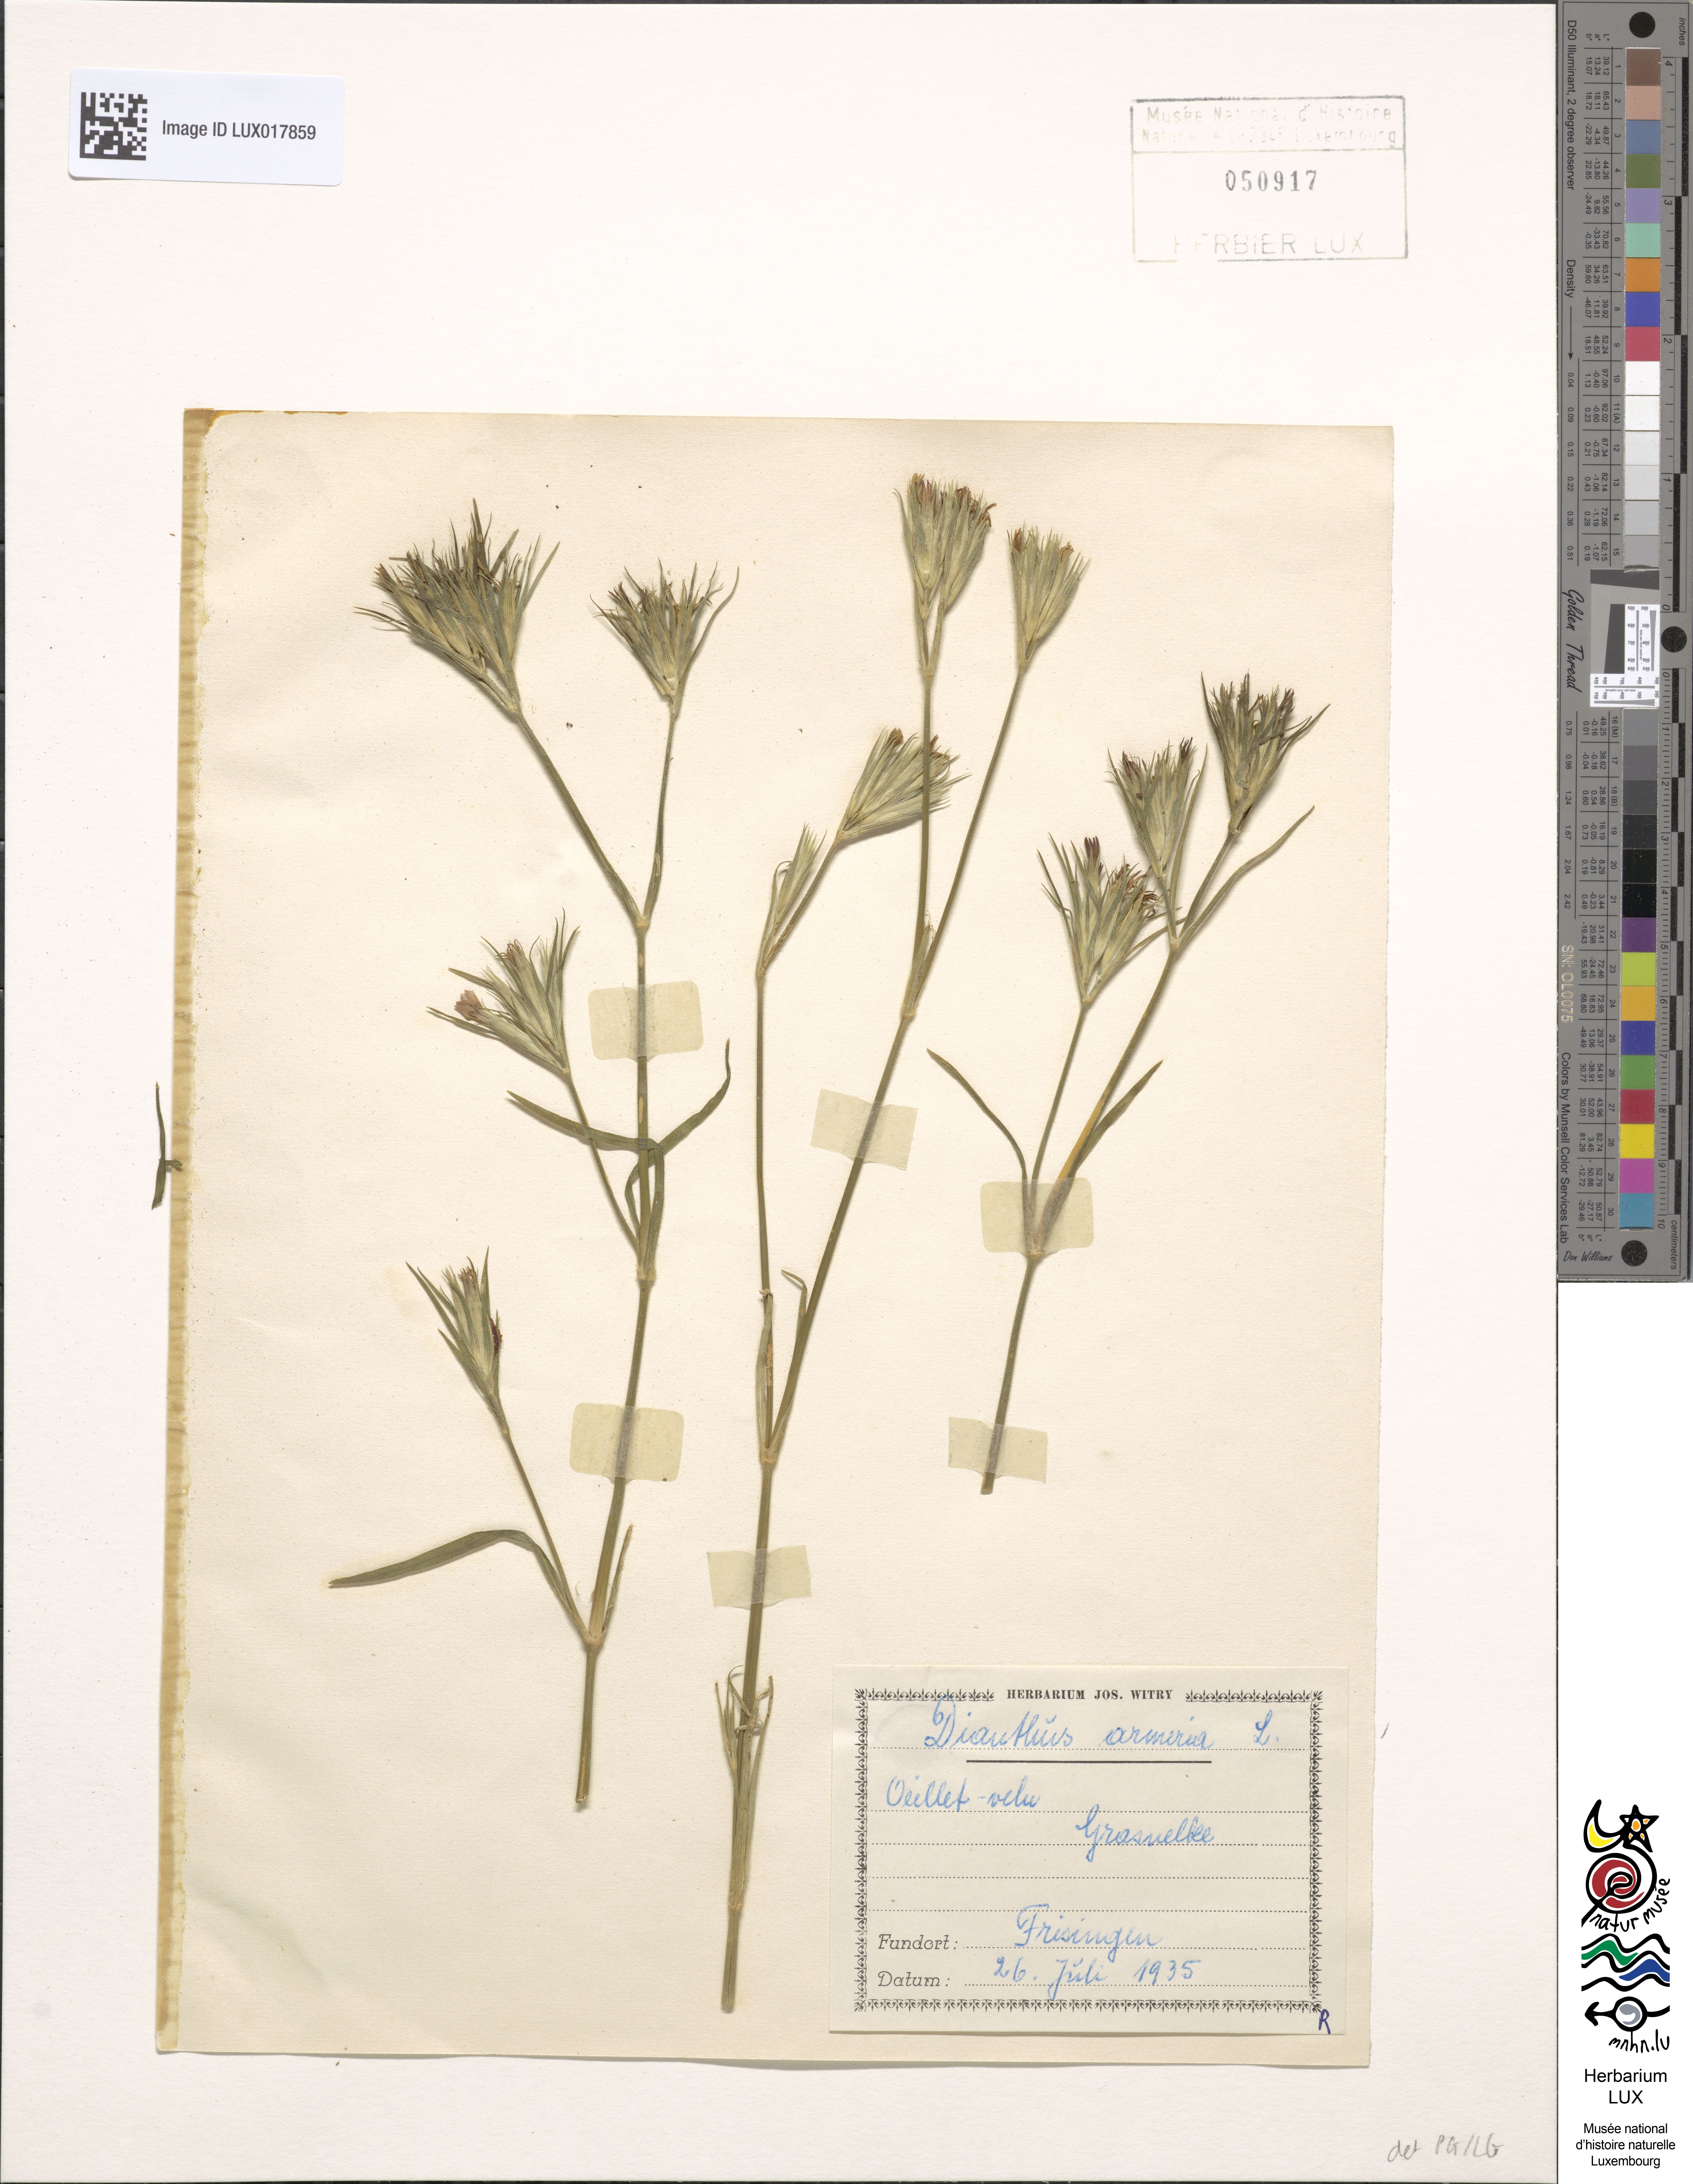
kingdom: Plantae
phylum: Tracheophyta
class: Magnoliopsida
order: Caryophyllales
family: Caryophyllaceae
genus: Dianthus
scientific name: Dianthus armeria
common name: Deptford pink
